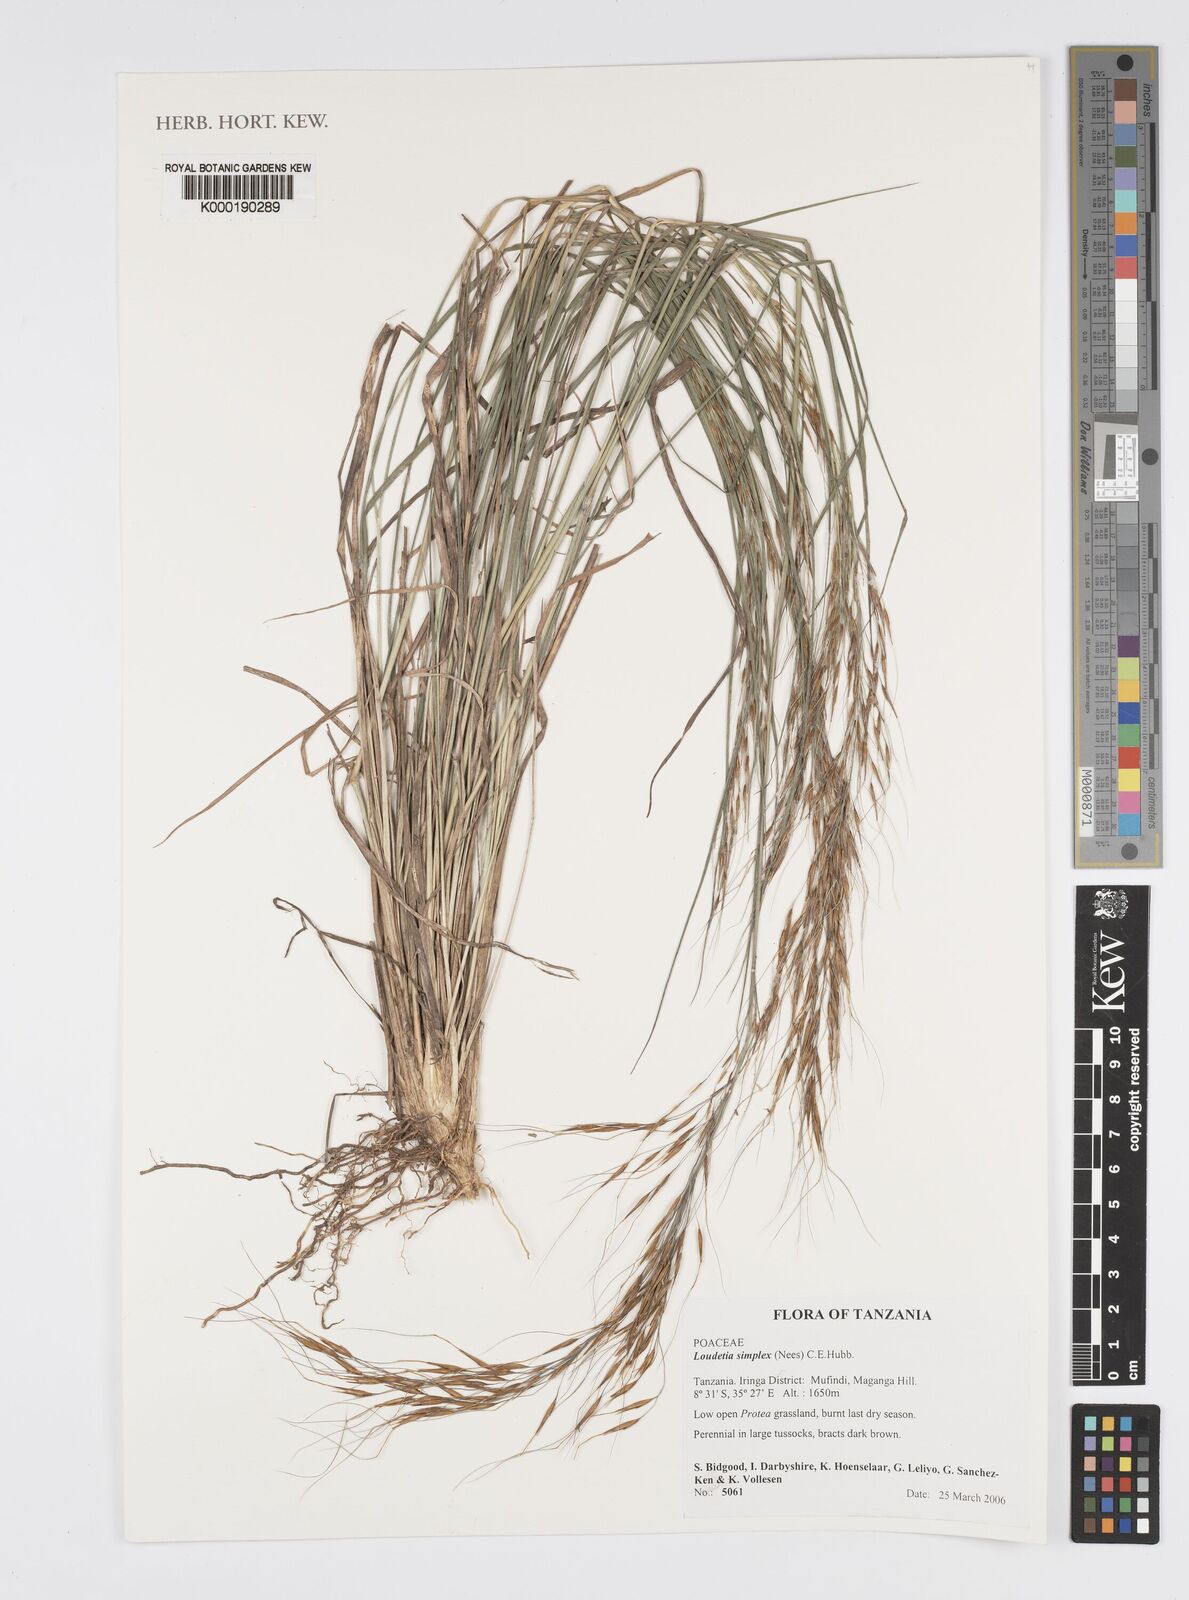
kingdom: Plantae
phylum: Tracheophyta
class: Liliopsida
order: Poales
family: Poaceae
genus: Loudetia
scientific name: Loudetia simplex
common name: Common russet grass
